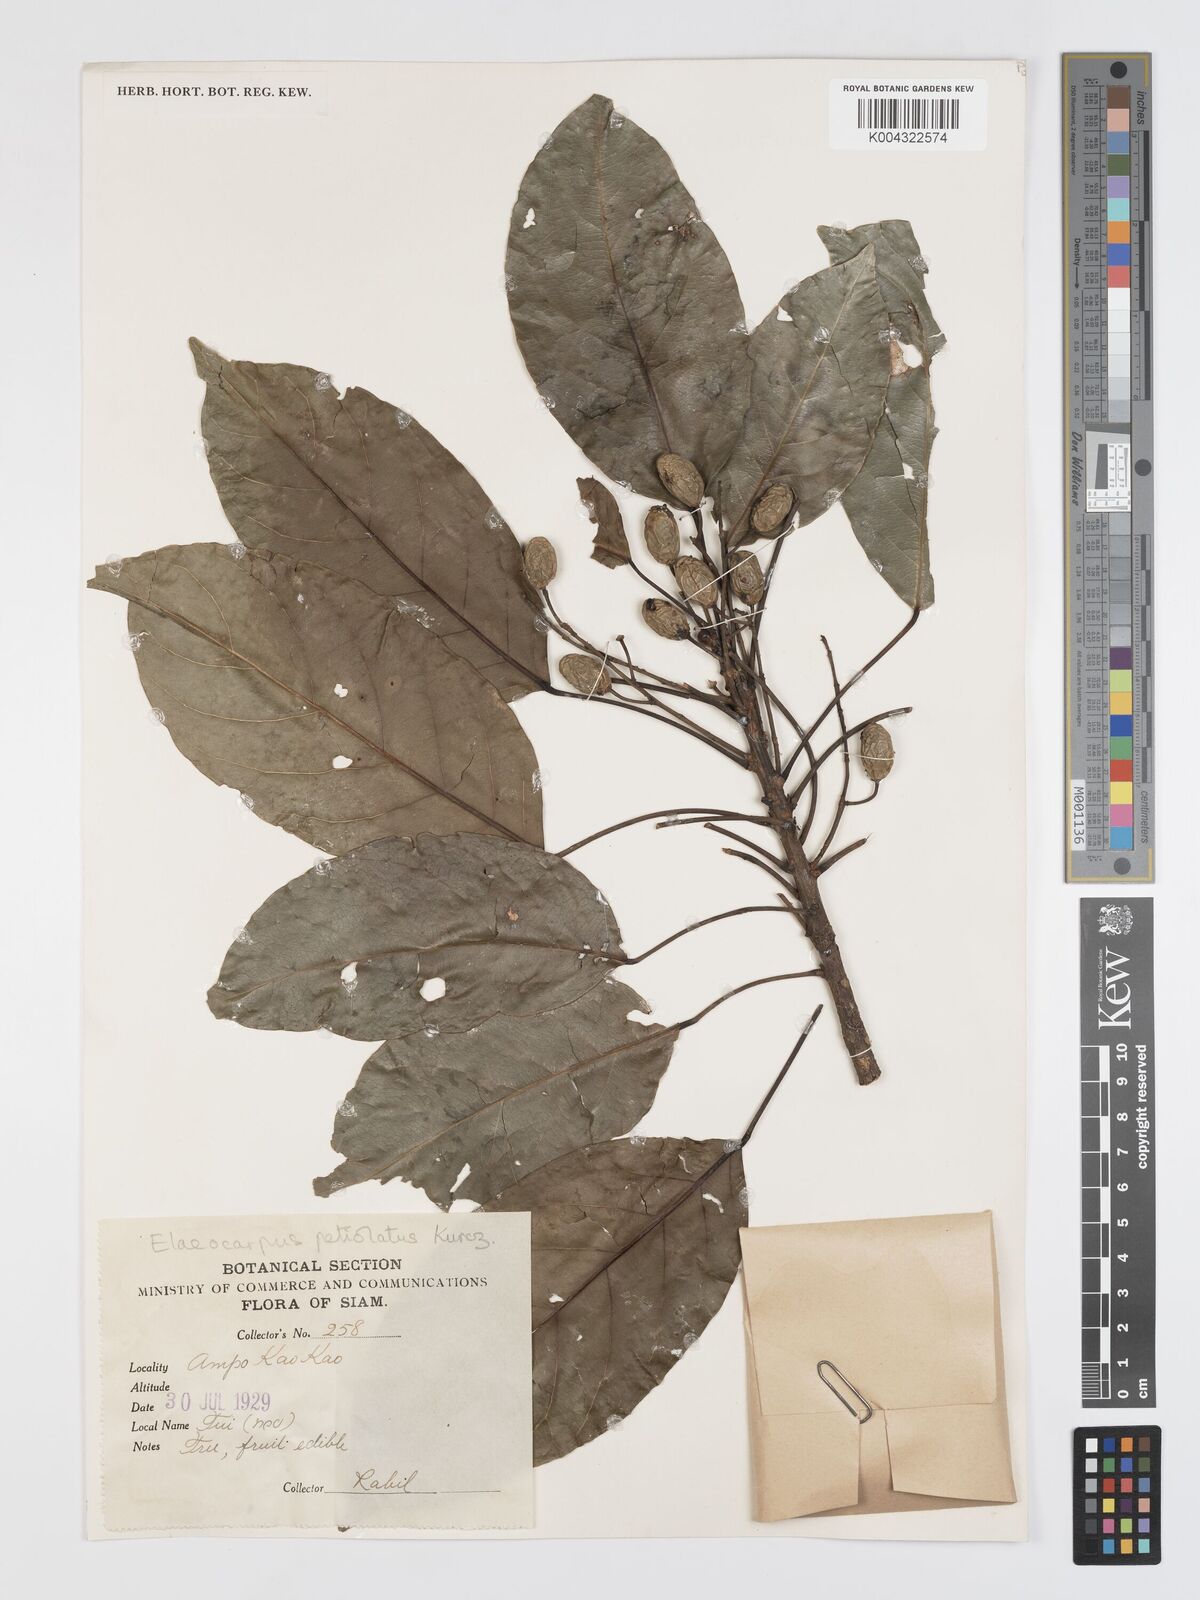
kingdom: Plantae
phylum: Tracheophyta
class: Magnoliopsida
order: Oxalidales
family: Elaeocarpaceae
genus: Elaeocarpus
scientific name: Elaeocarpus petiolatus
